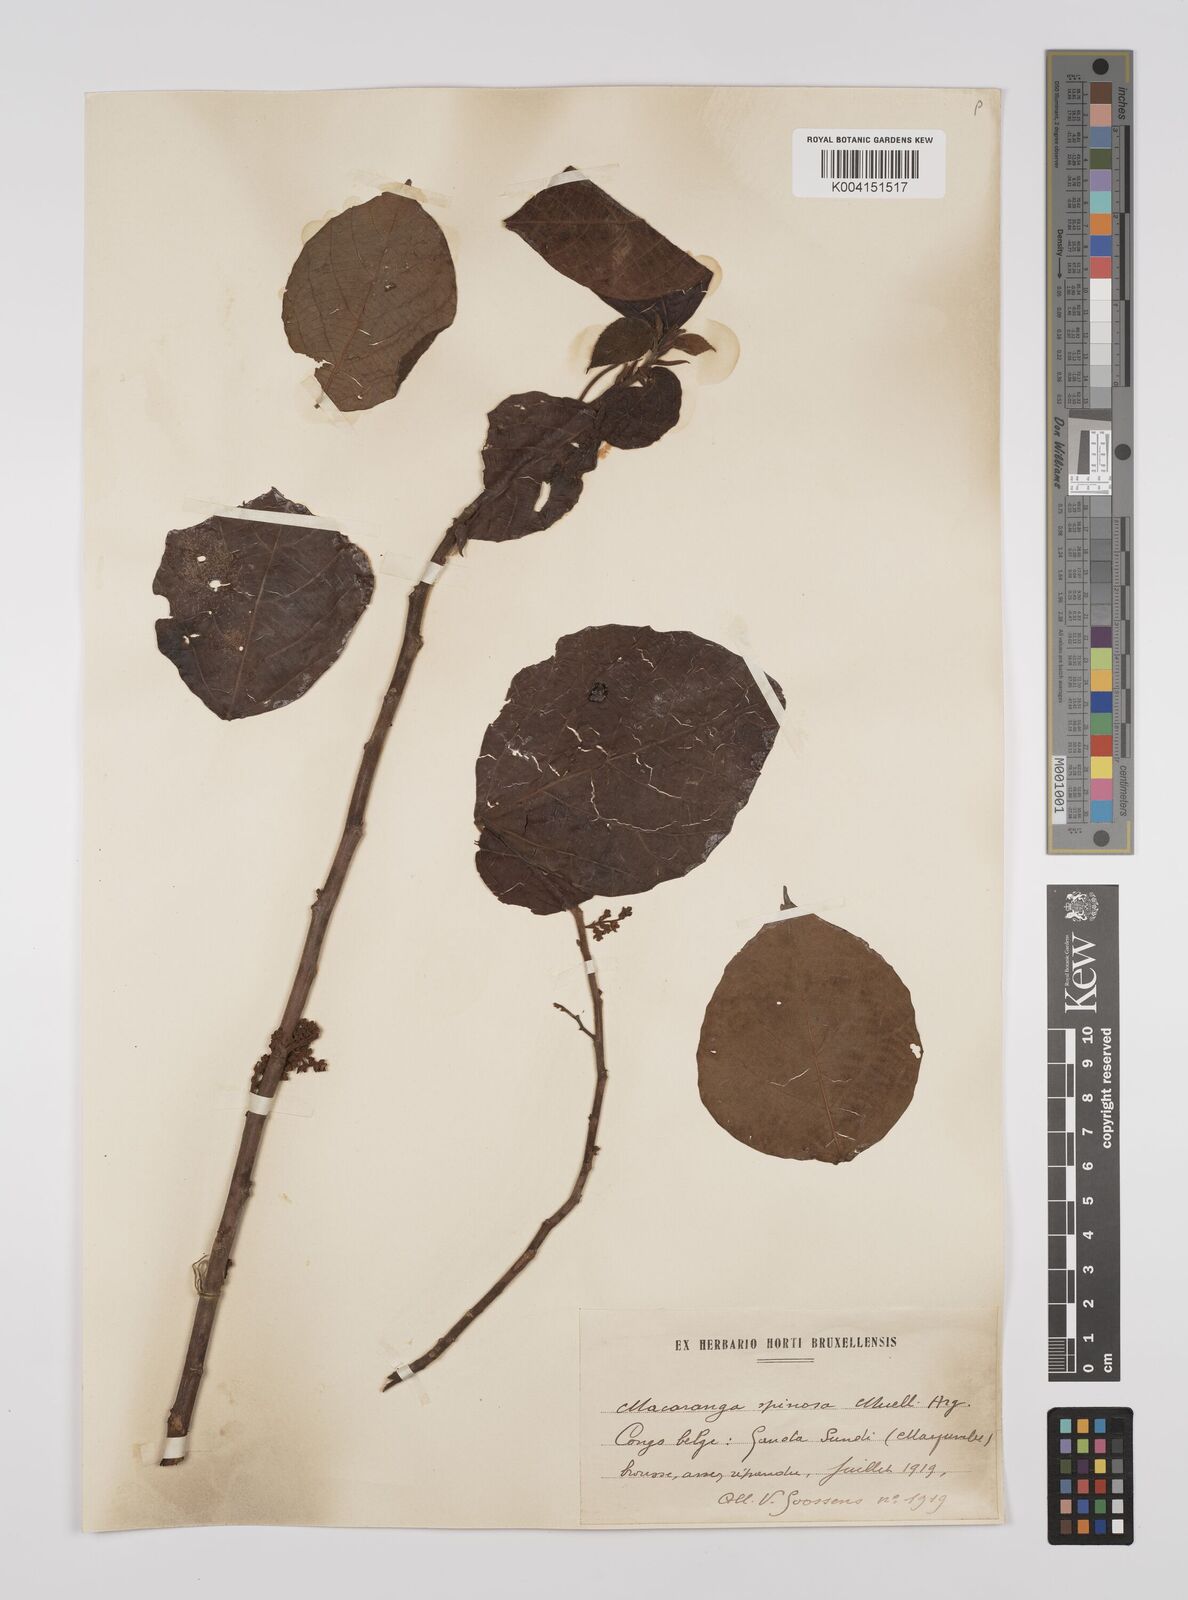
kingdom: Plantae
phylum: Tracheophyta
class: Magnoliopsida
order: Malpighiales
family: Euphorbiaceae
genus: Macaranga
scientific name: Macaranga spinosa
